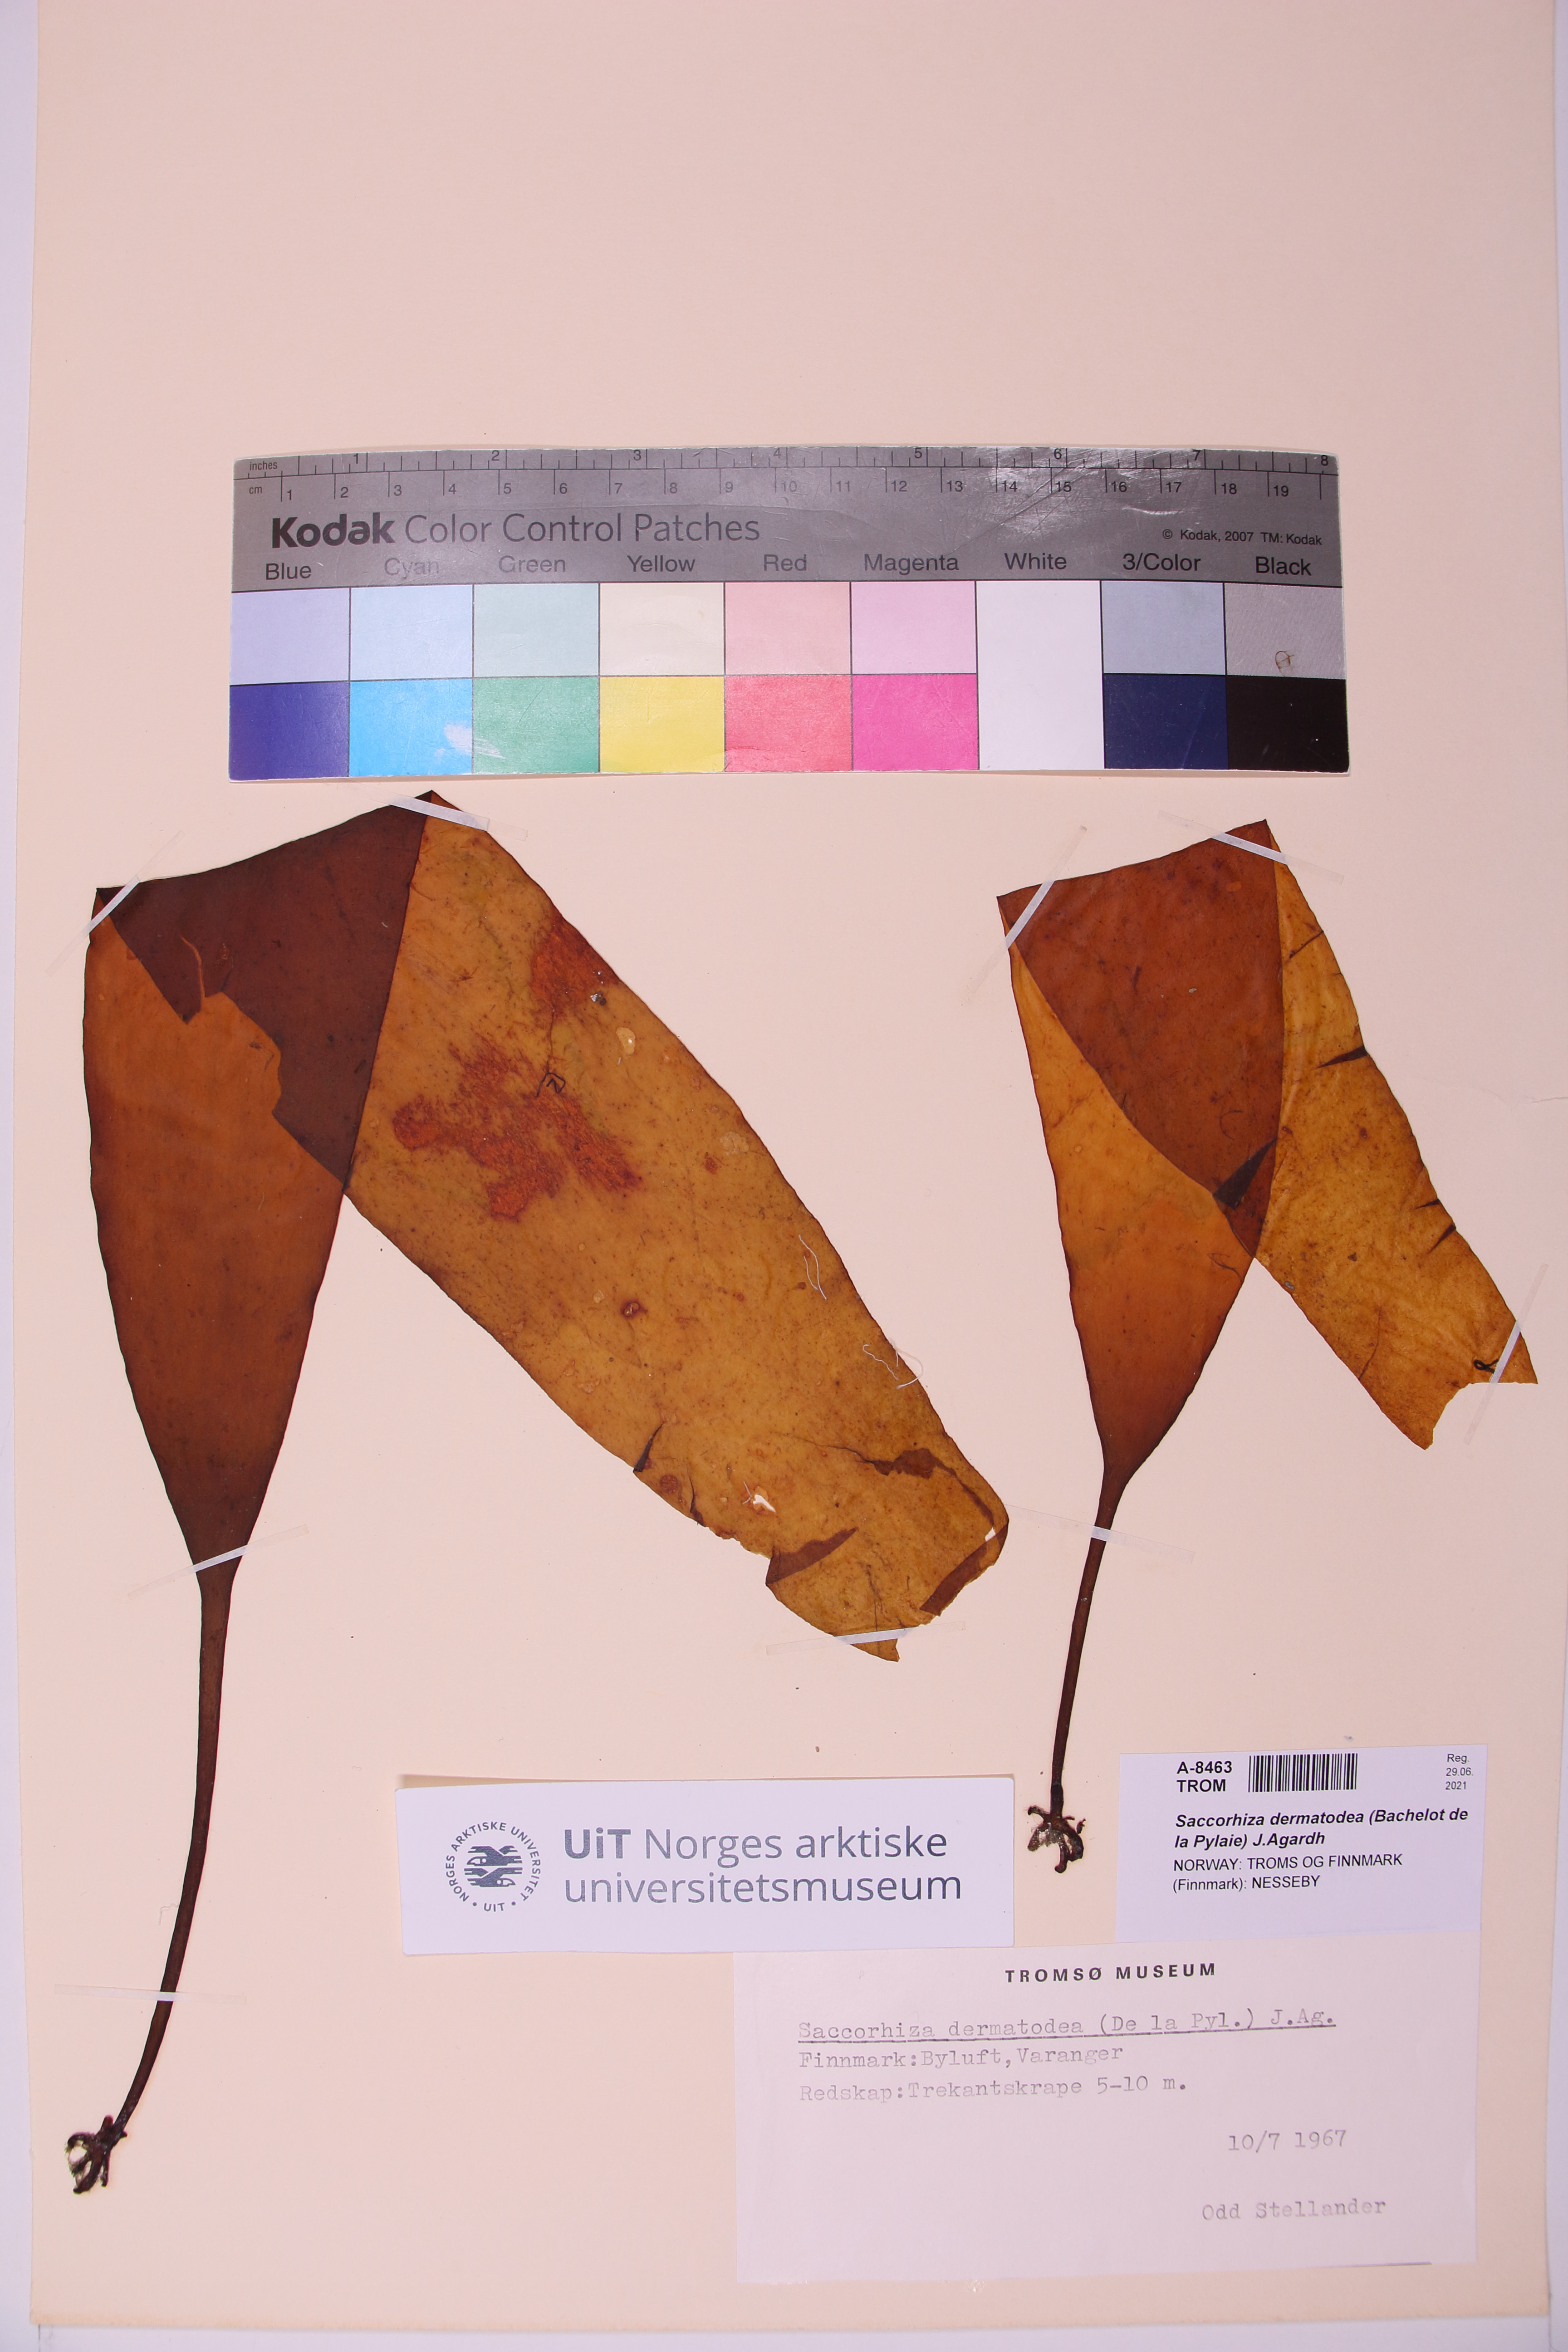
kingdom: Chromista
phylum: Ochrophyta
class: Phaeophyceae
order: Tilopteridales
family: Phyllariaceae
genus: Saccorhiza
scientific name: Saccorhiza dermatodea
